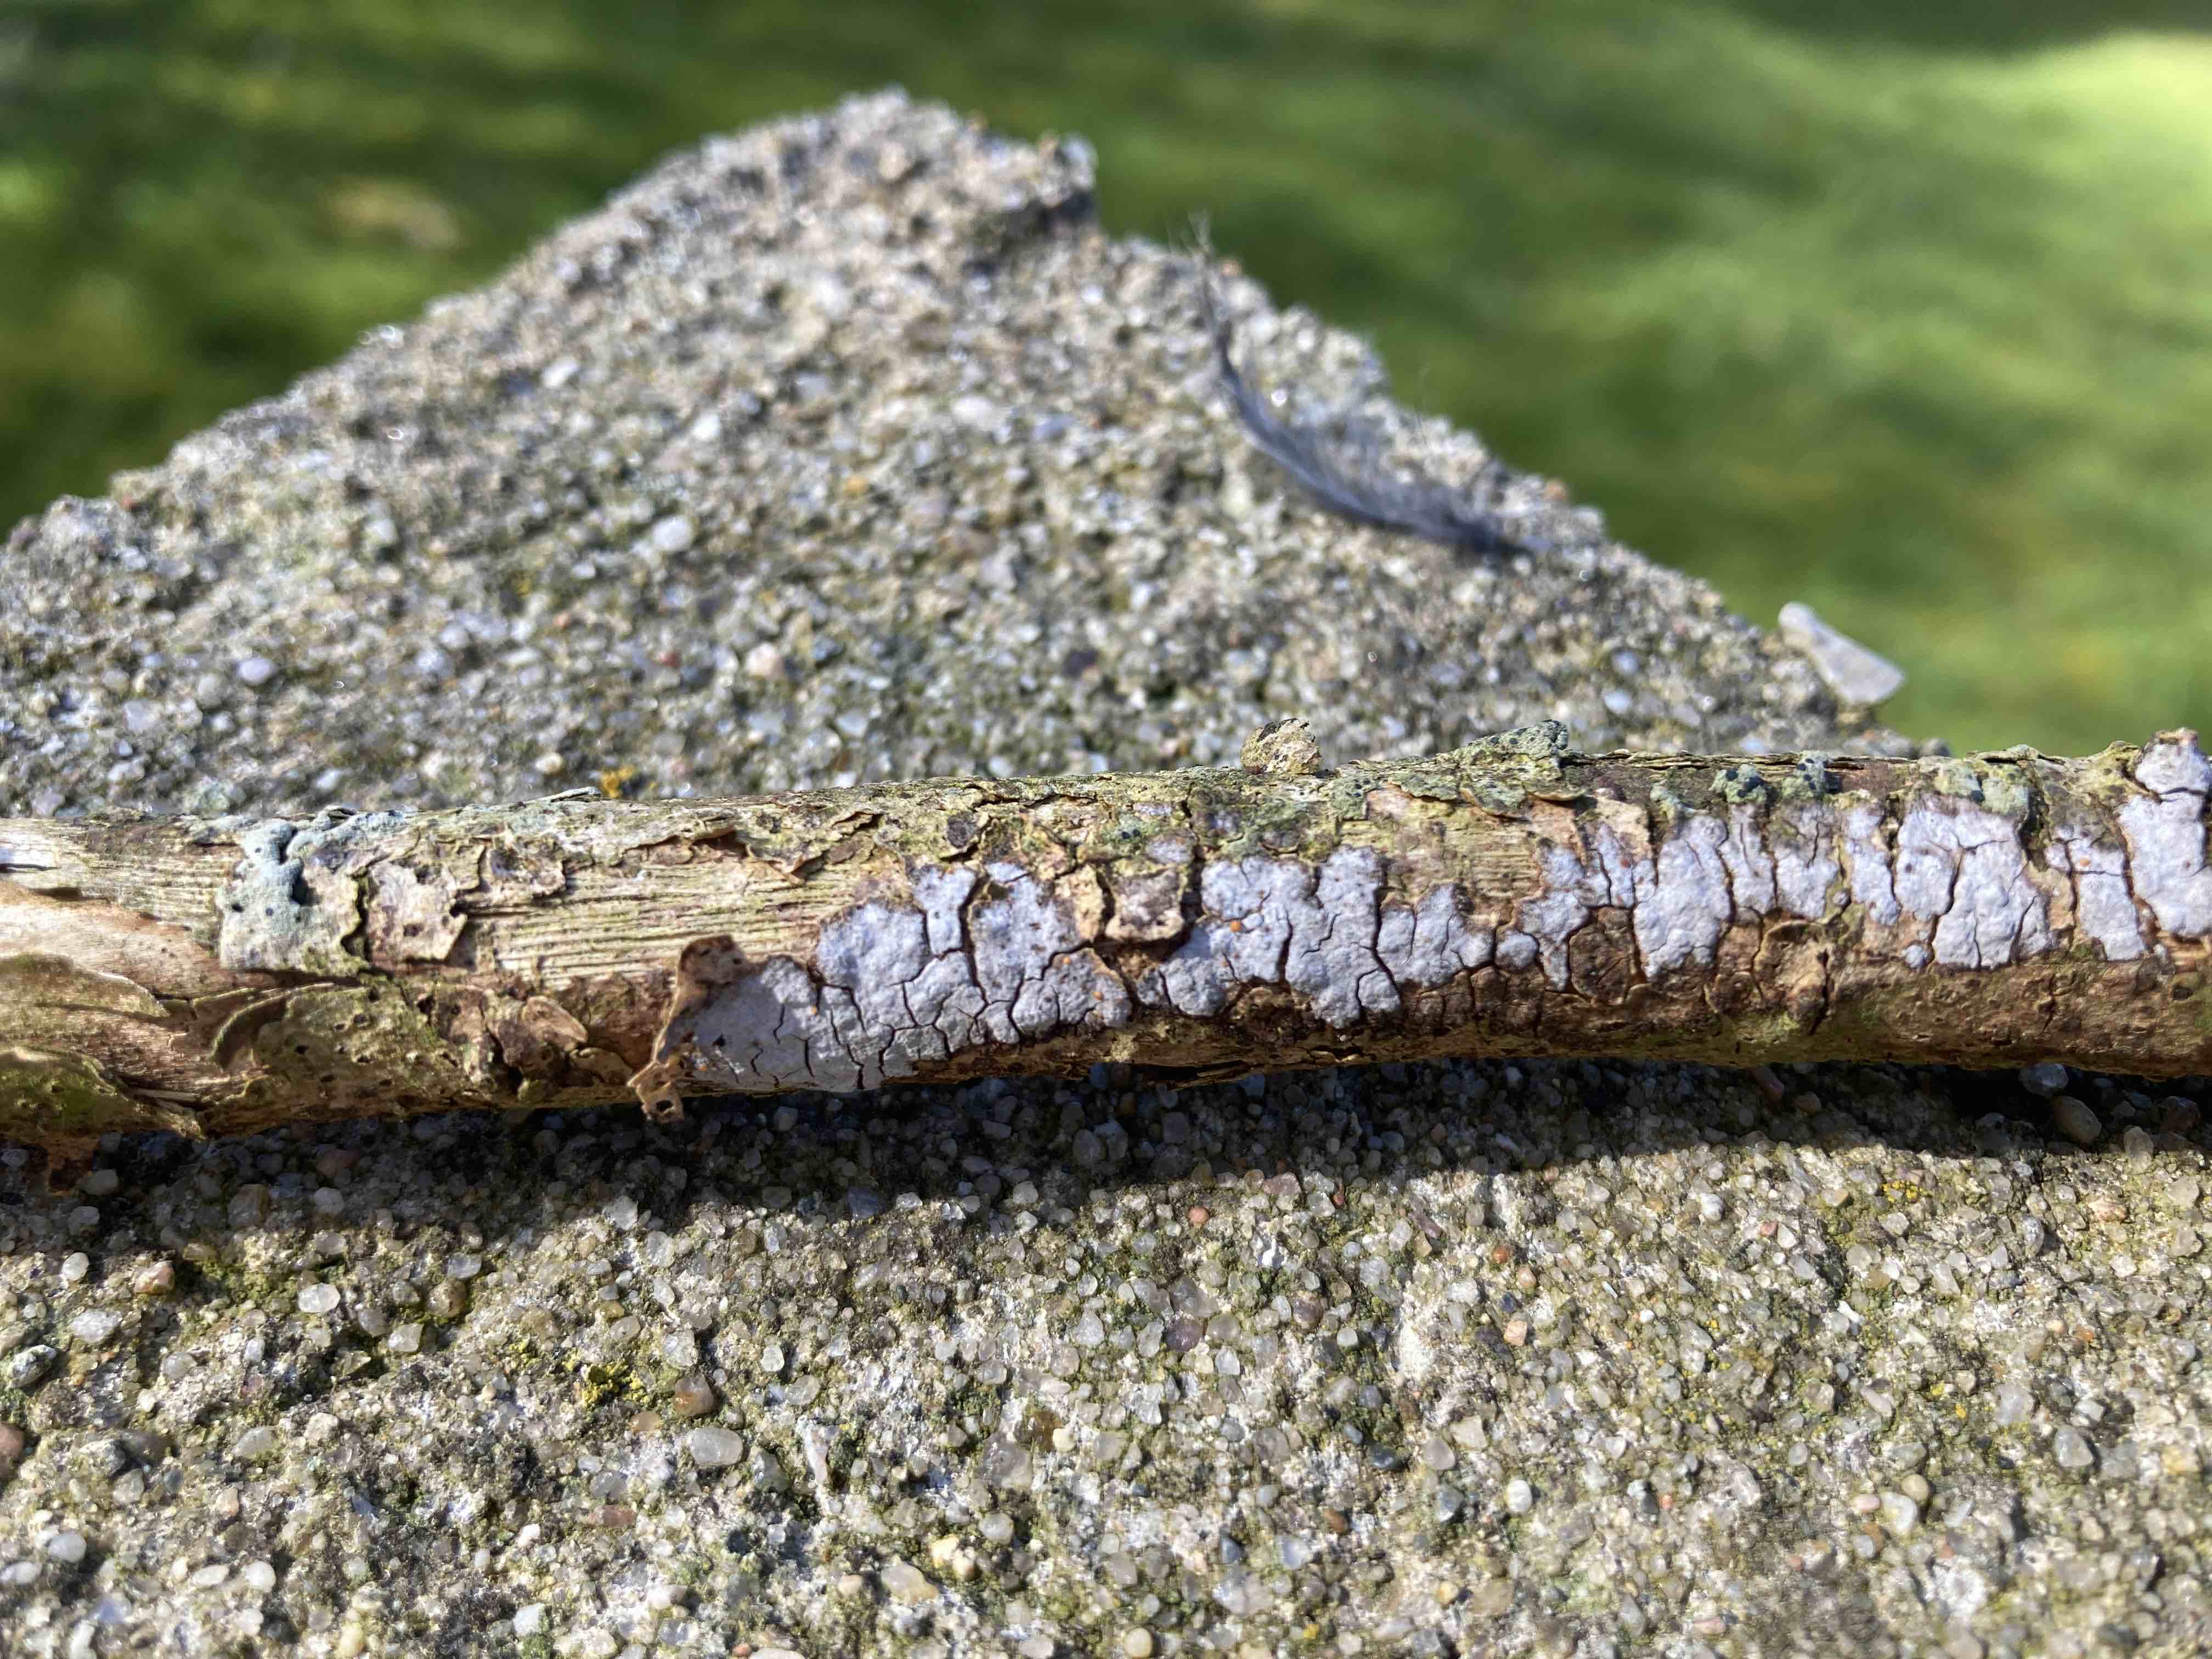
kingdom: Fungi
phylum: Basidiomycota
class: Tremellomycetes
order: Tremellales
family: Tremellaceae
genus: Tremella
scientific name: Tremella versicolor
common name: voksskind-bævresvamp
